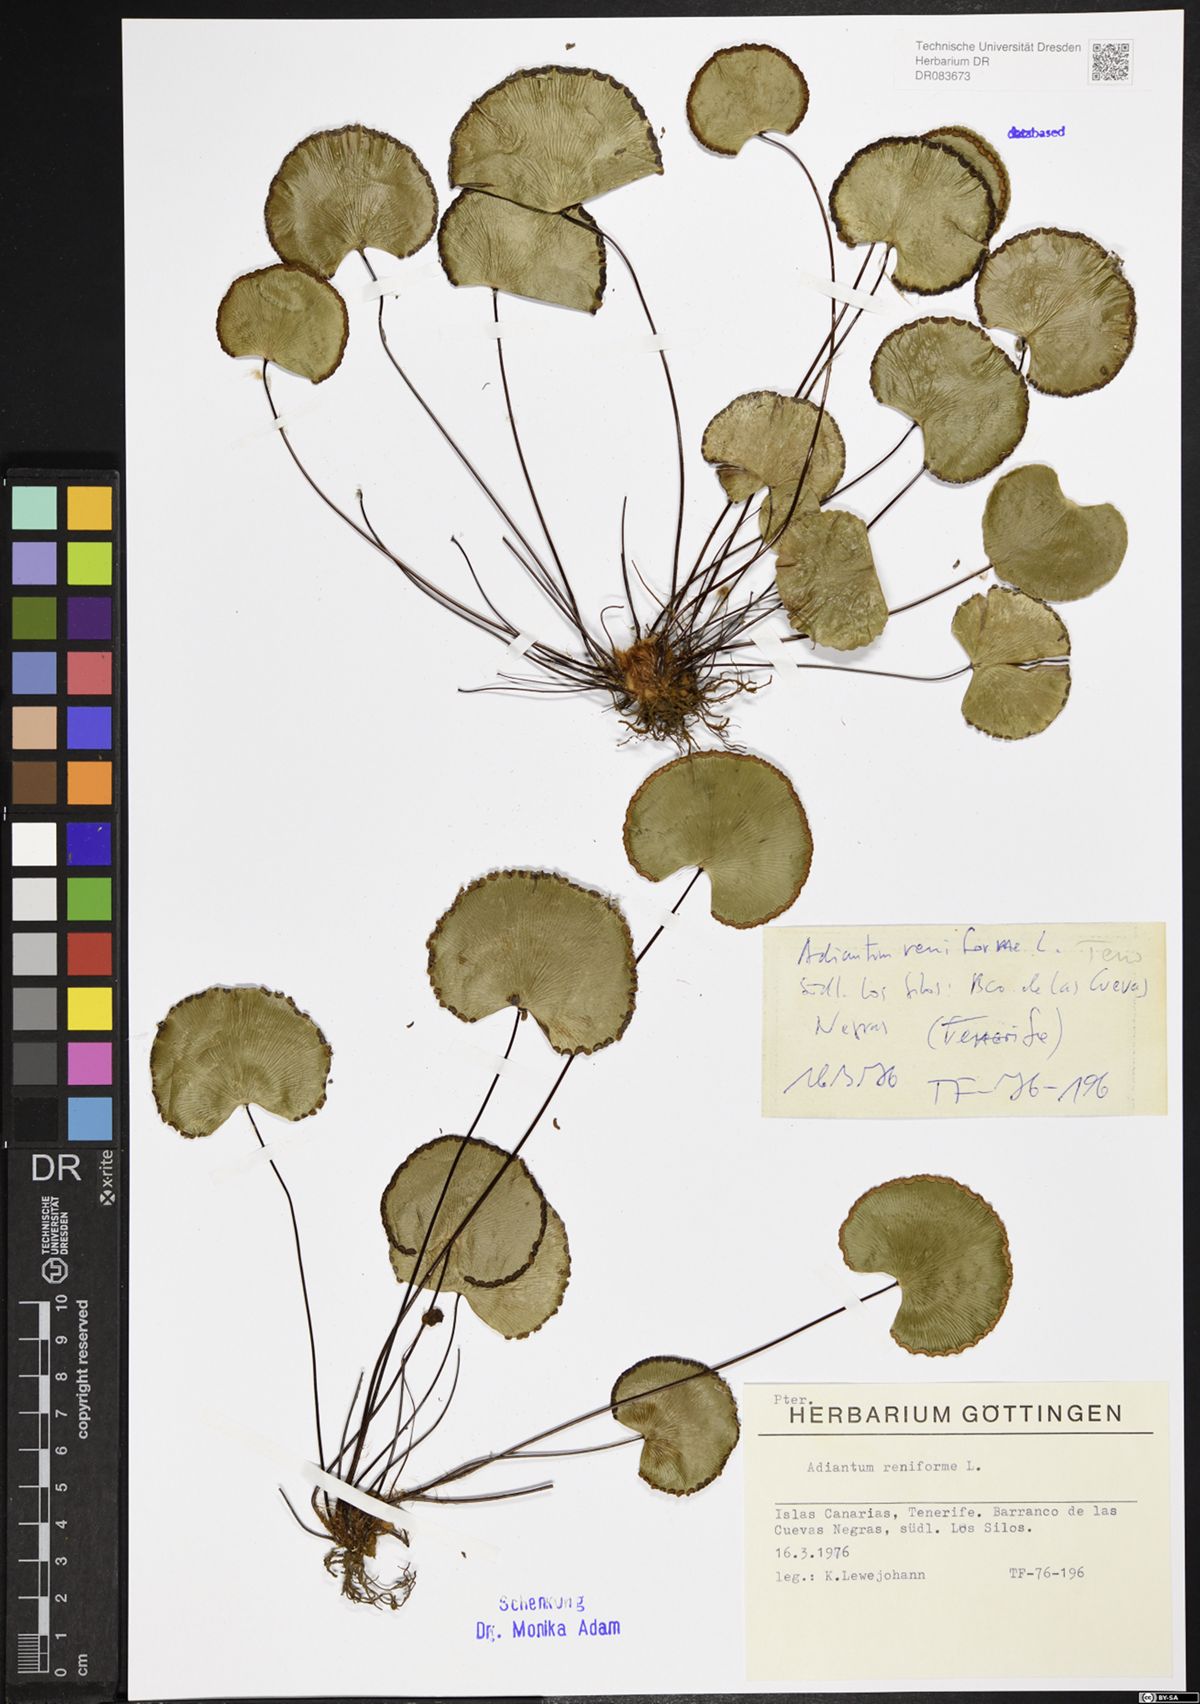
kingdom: Plantae
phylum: Tracheophyta
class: Polypodiopsida
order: Polypodiales
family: Pteridaceae
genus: Adiantum
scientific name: Adiantum reniforme
